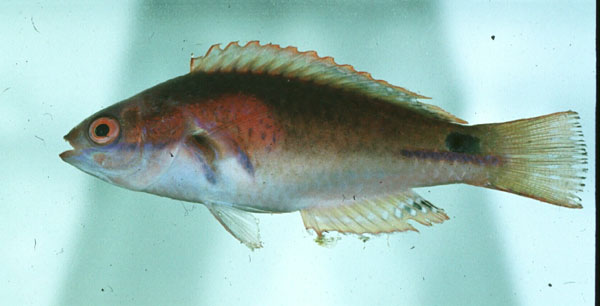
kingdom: Animalia
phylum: Chordata
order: Perciformes
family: Labridae
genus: Cirrhilabrus
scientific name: Cirrhilabrus exquisitus
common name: Exquisite wrasse
